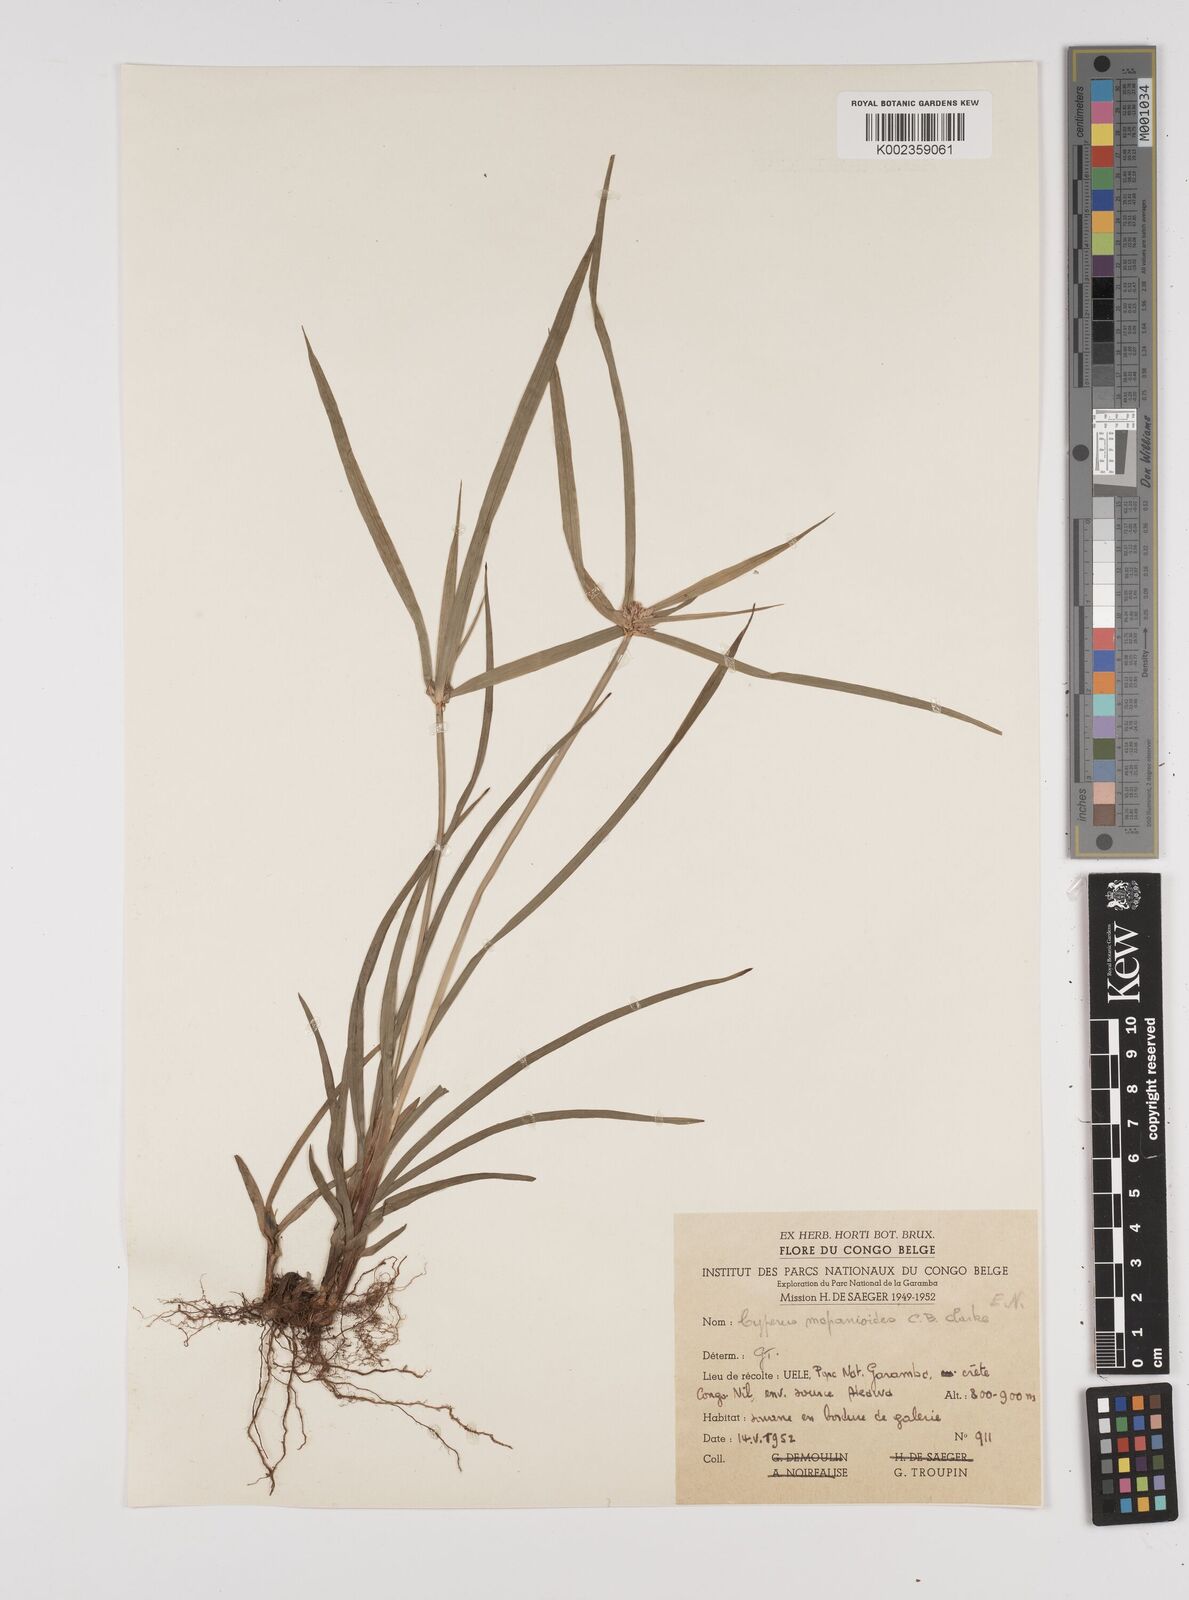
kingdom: Plantae
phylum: Tracheophyta
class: Liliopsida
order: Poales
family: Cyperaceae
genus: Cyperus
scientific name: Cyperus mapanioides
